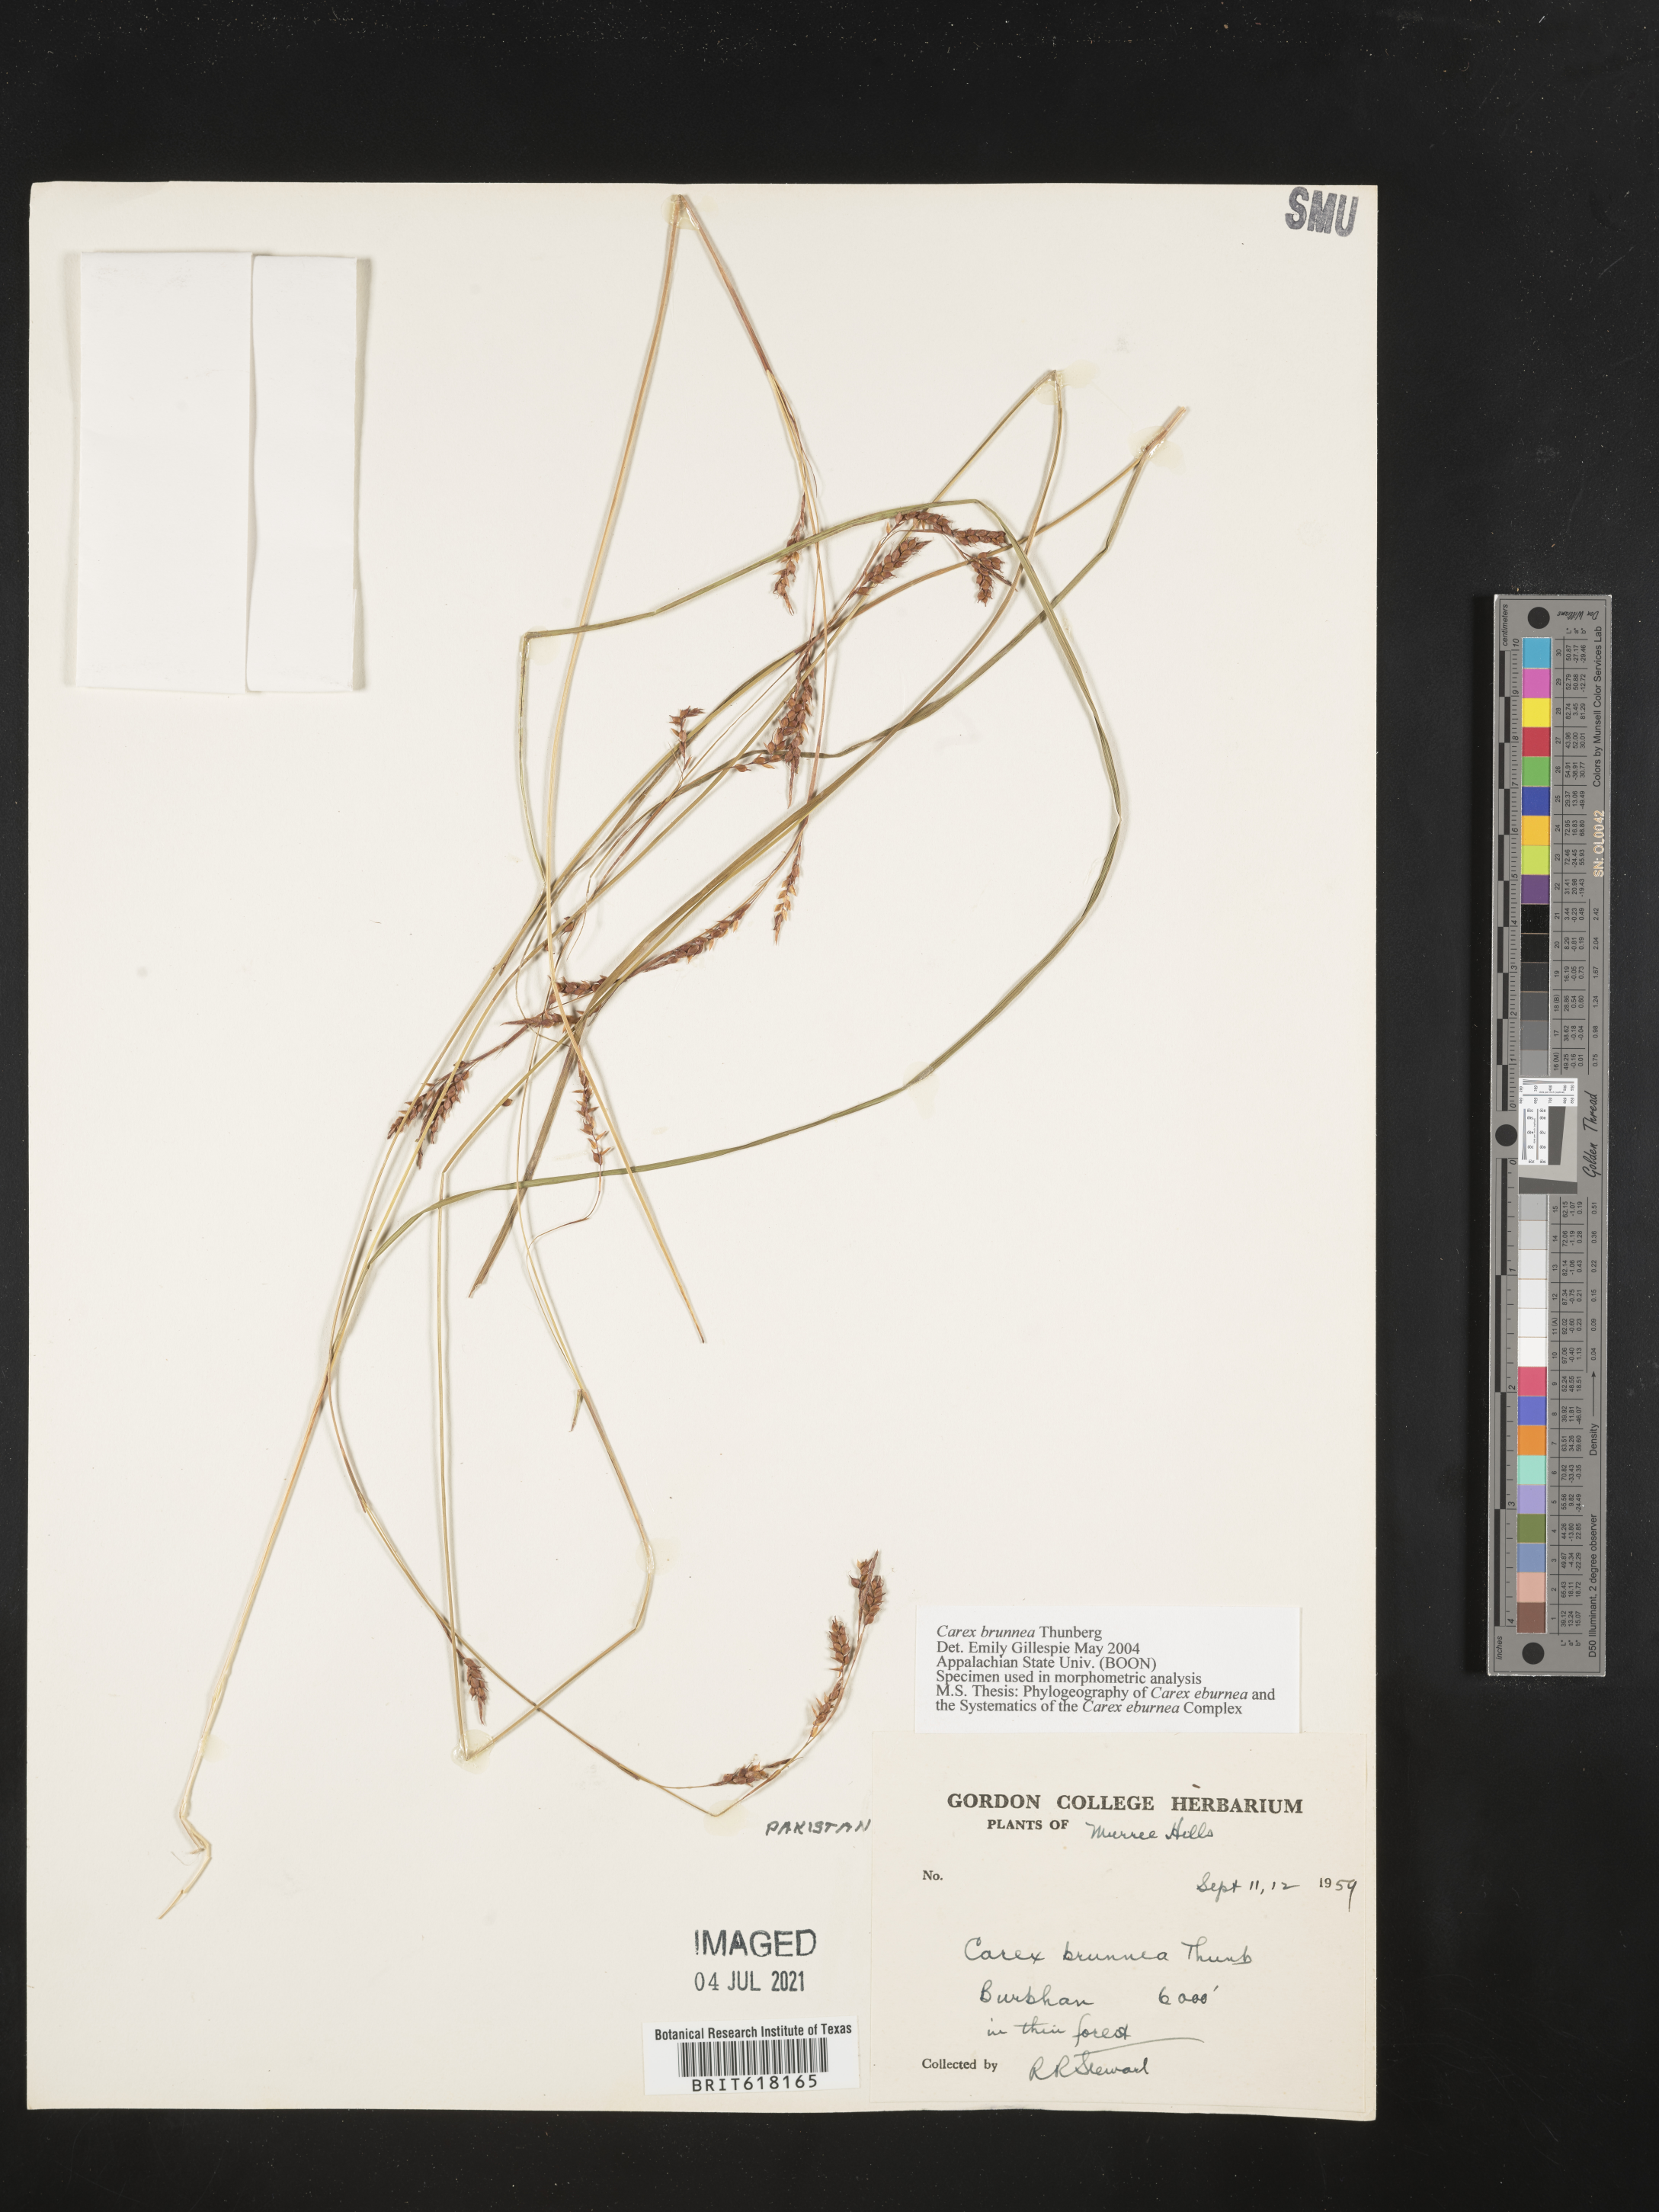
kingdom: Plantae
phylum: Tracheophyta
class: Liliopsida
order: Poales
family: Cyperaceae
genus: Carex
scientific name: Carex brunnea
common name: Greater brown sedge
